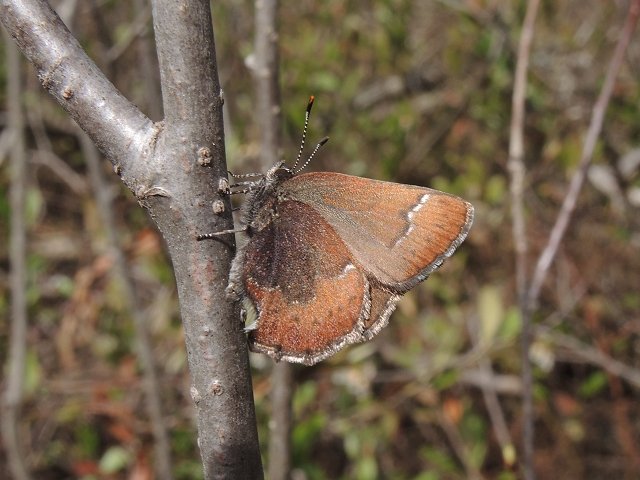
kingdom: Animalia
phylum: Arthropoda
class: Insecta
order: Lepidoptera
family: Lycaenidae
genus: Incisalia
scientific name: Incisalia irioides
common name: Brown Elfin
